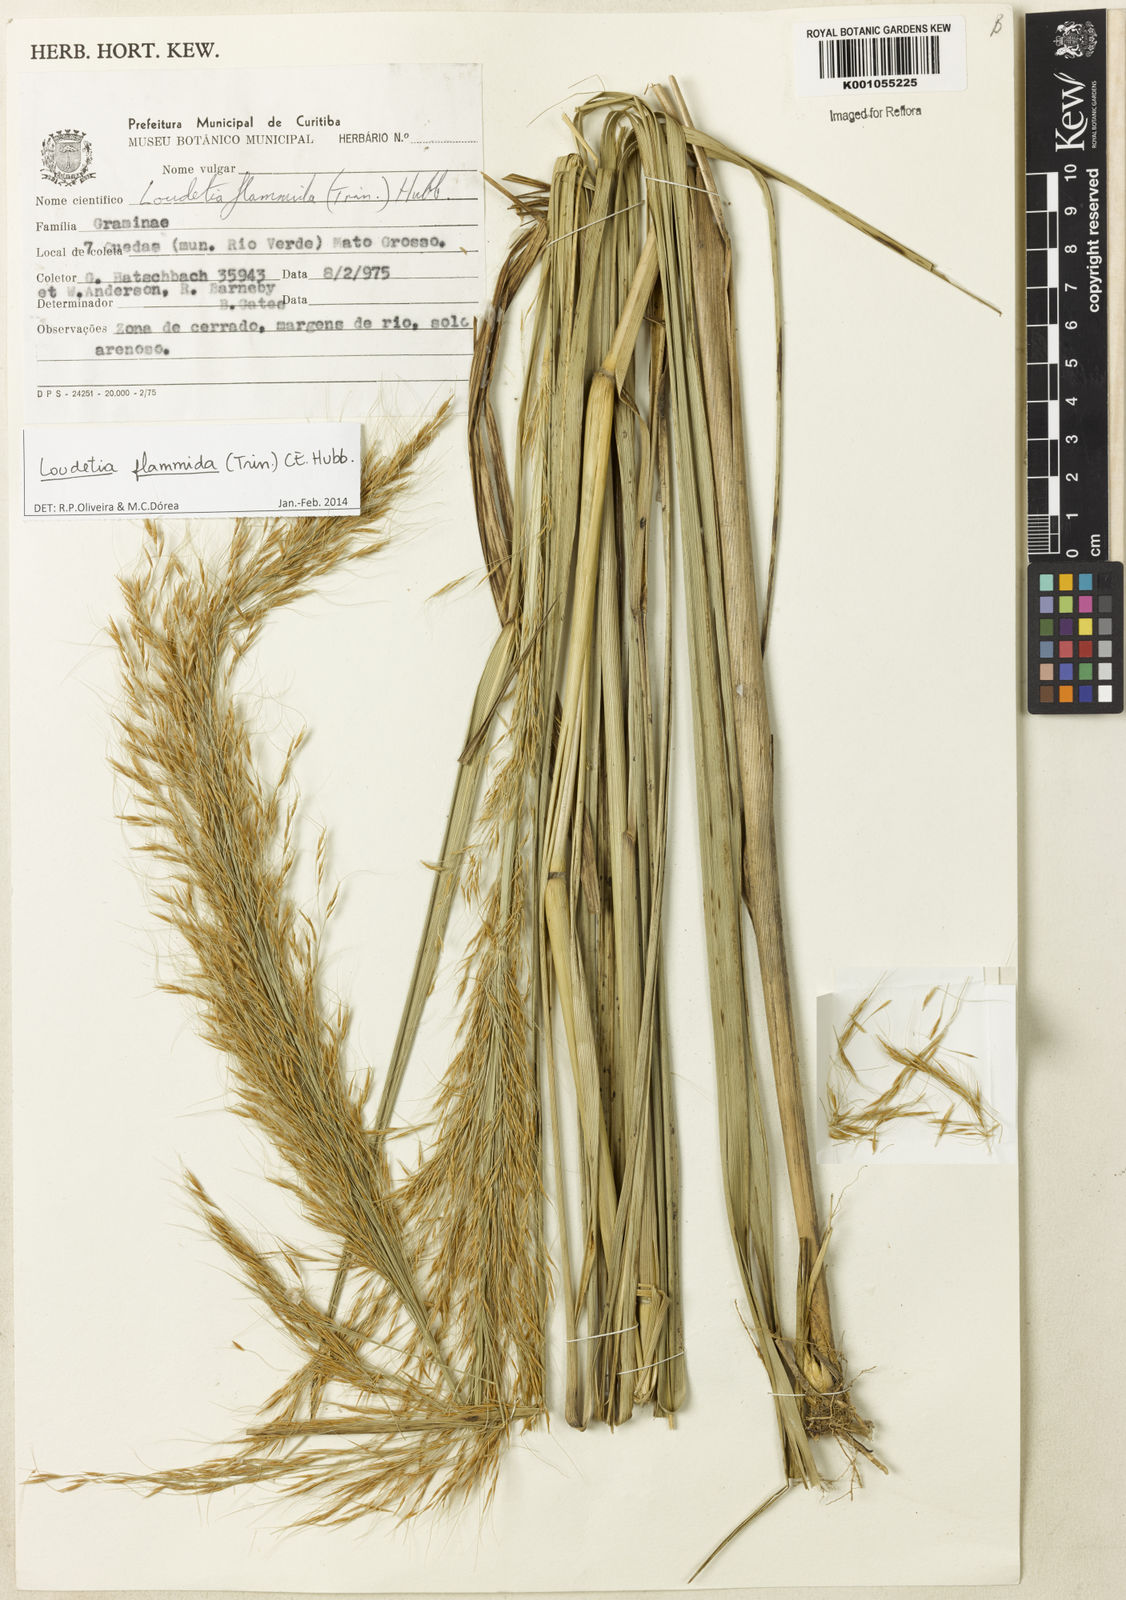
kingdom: Plantae
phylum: Tracheophyta
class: Liliopsida
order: Poales
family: Poaceae
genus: Loudetia
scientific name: Loudetia flammida
